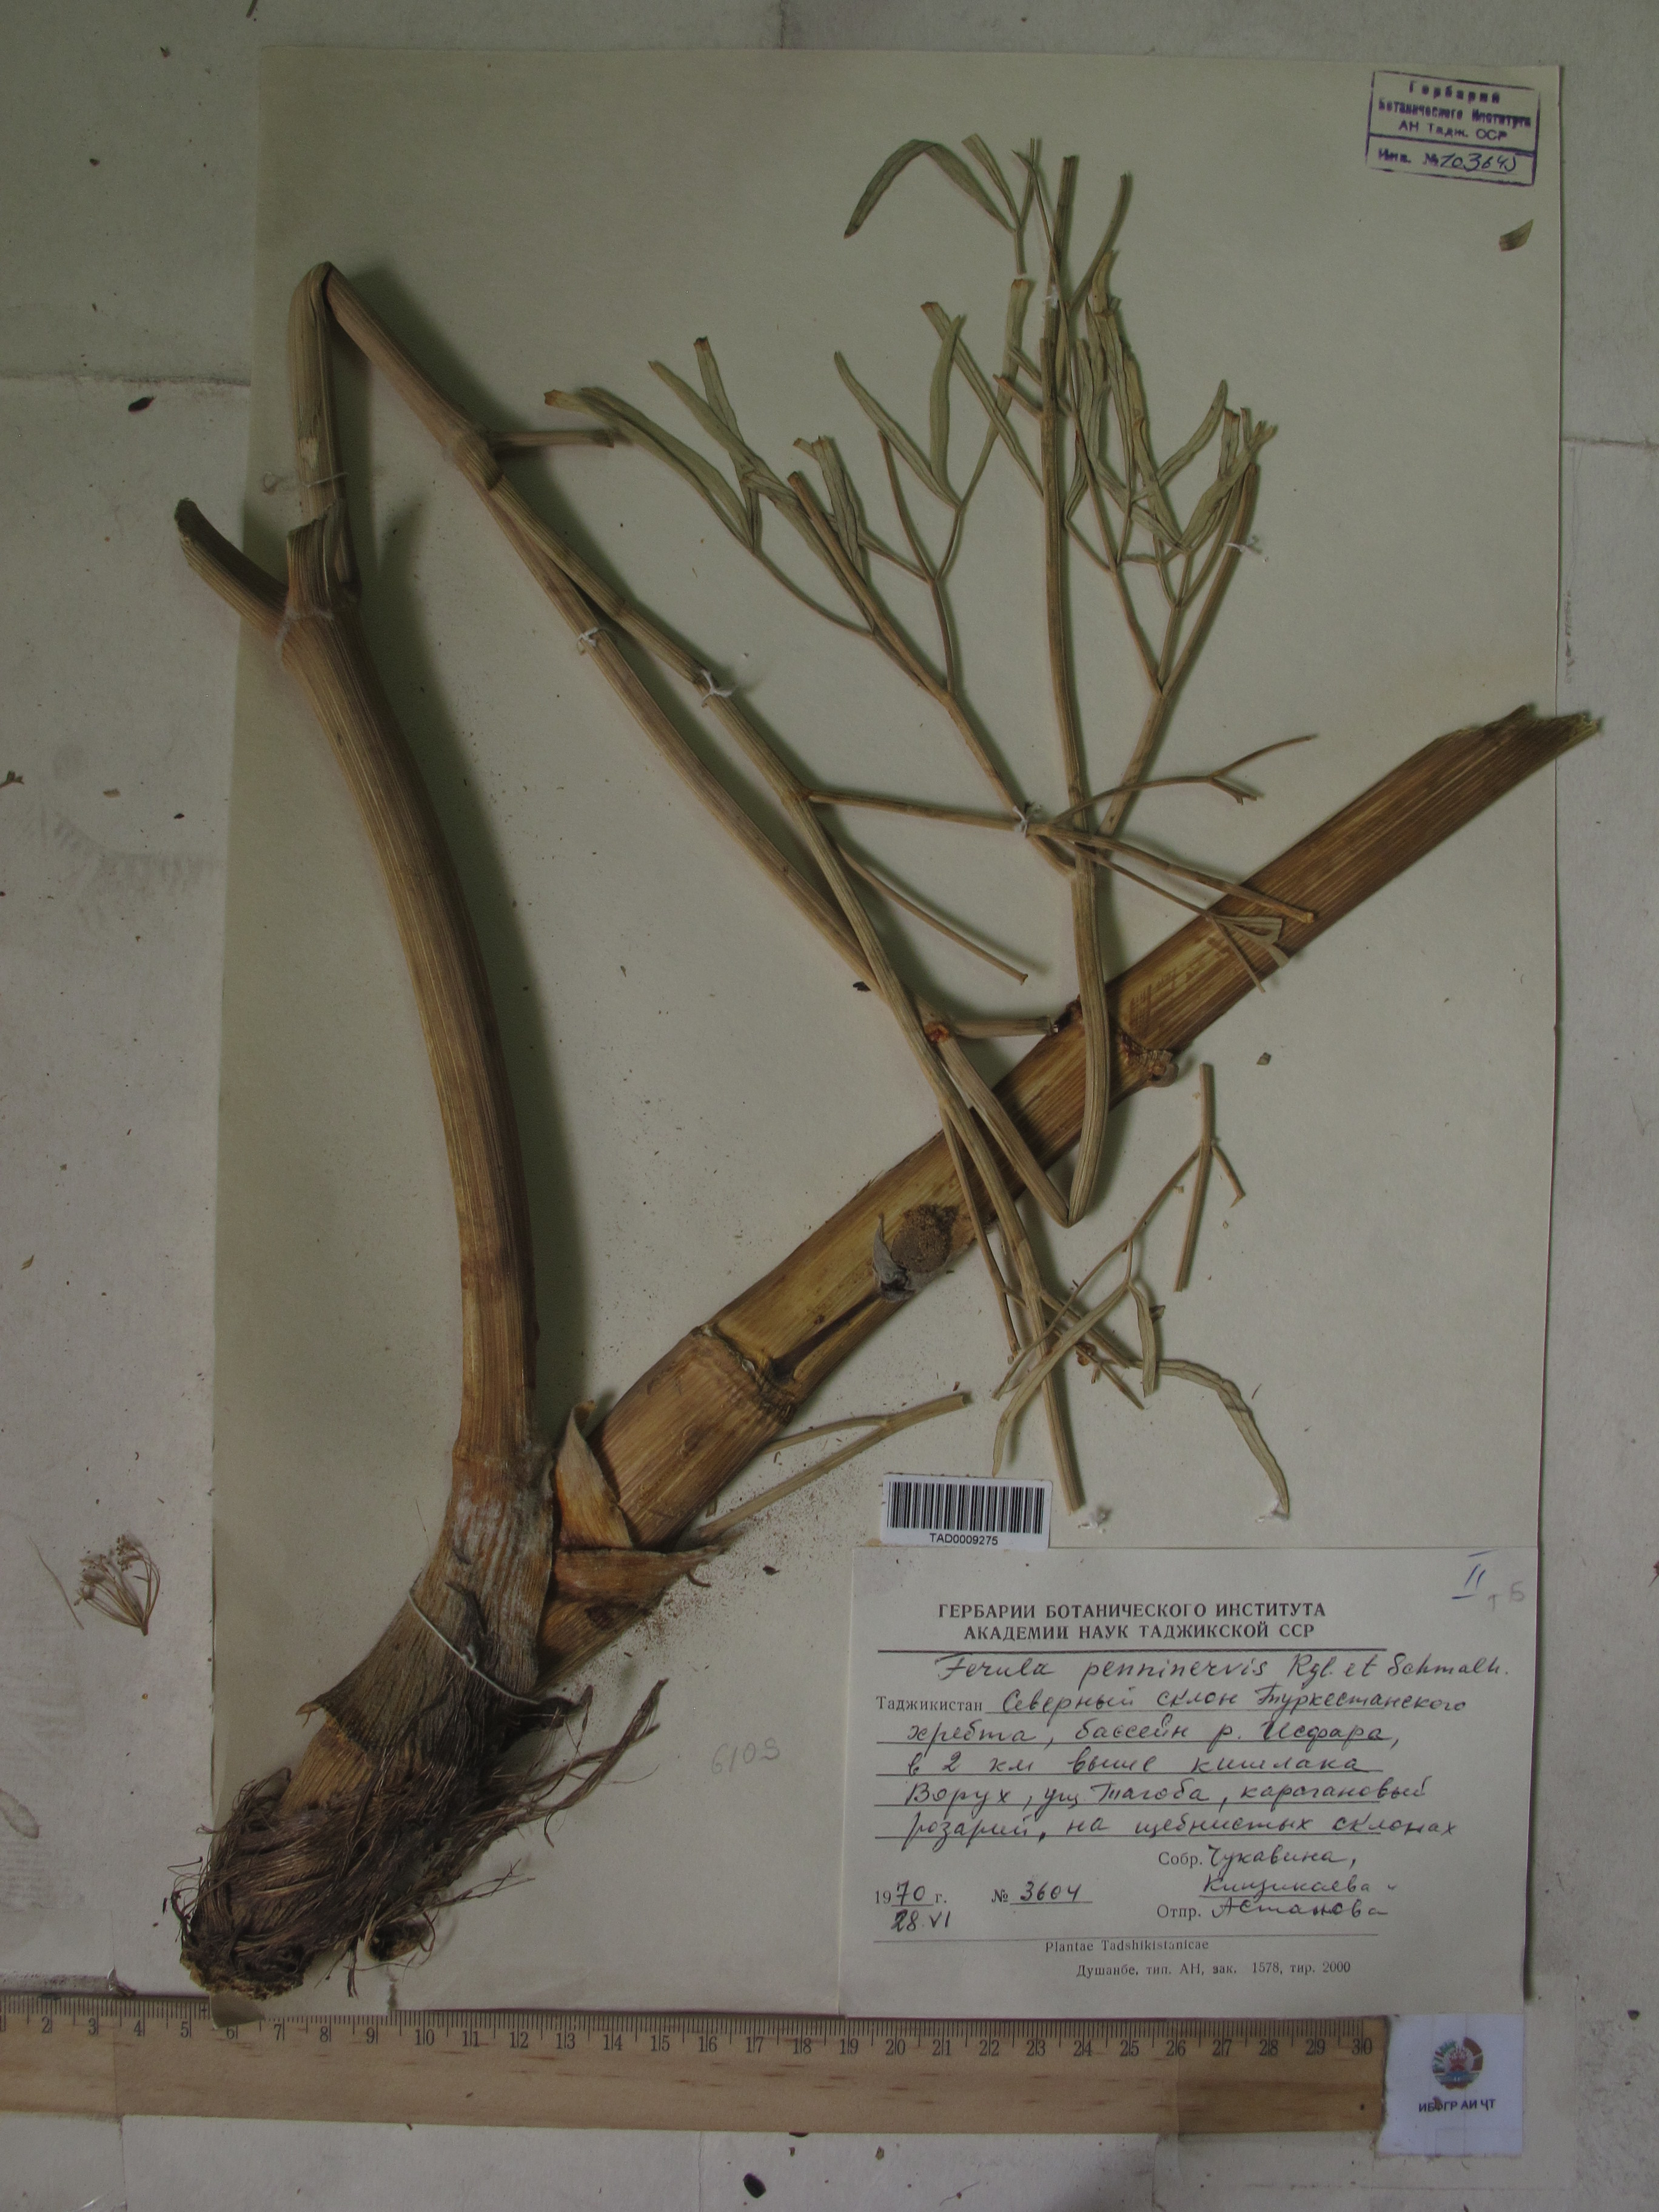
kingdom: Plantae
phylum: Tracheophyta
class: Magnoliopsida
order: Apiales
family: Apiaceae
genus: Ferula
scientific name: Ferula
